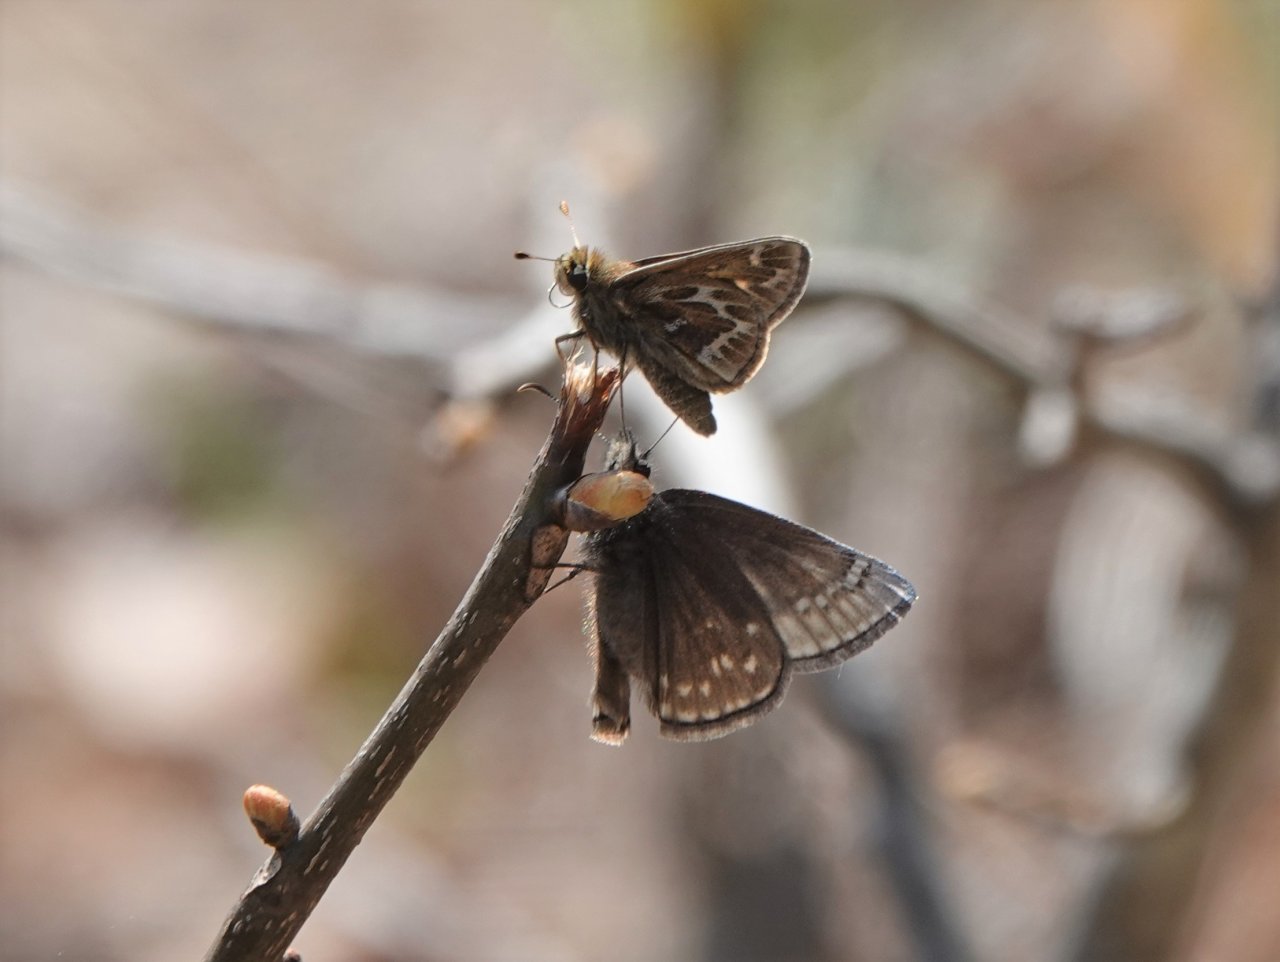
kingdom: Animalia
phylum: Arthropoda
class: Insecta
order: Lepidoptera
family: Hesperiidae
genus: Hesperia
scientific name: Hesperia metea
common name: Cobweb Skipper
